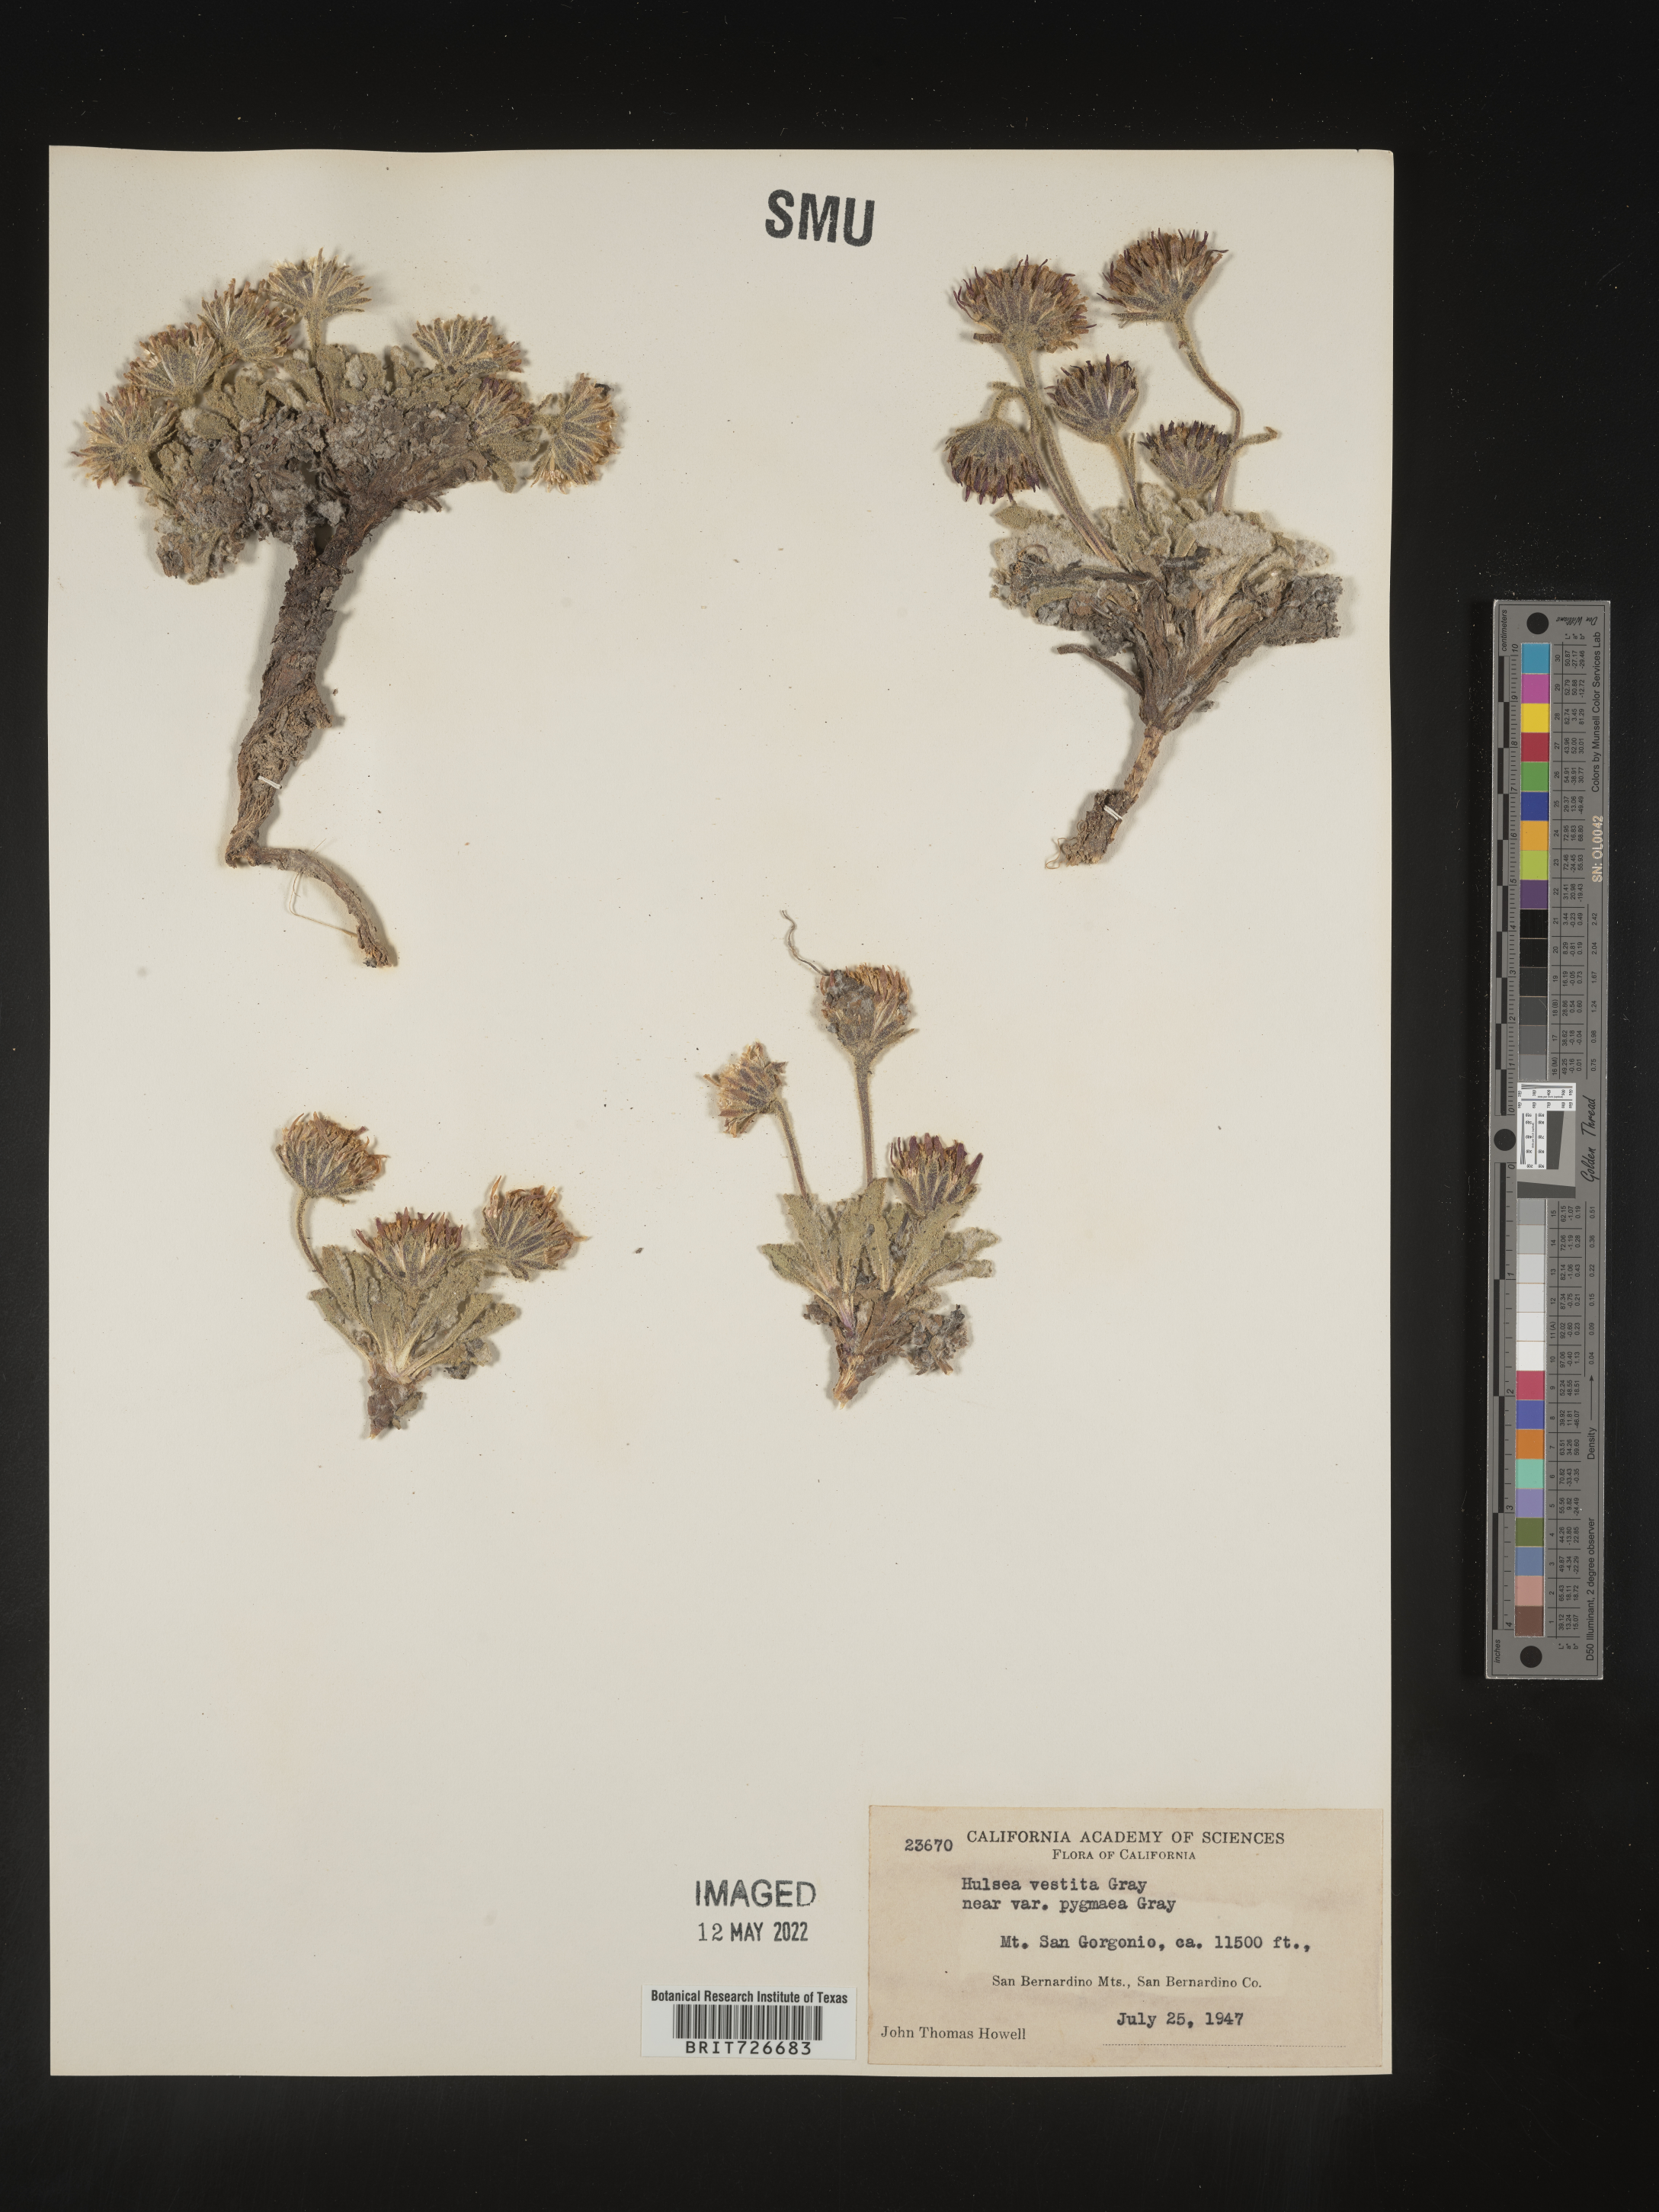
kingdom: Plantae
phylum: Tracheophyta
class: Magnoliopsida
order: Asterales
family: Asteraceae
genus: Hulsea
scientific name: Hulsea
